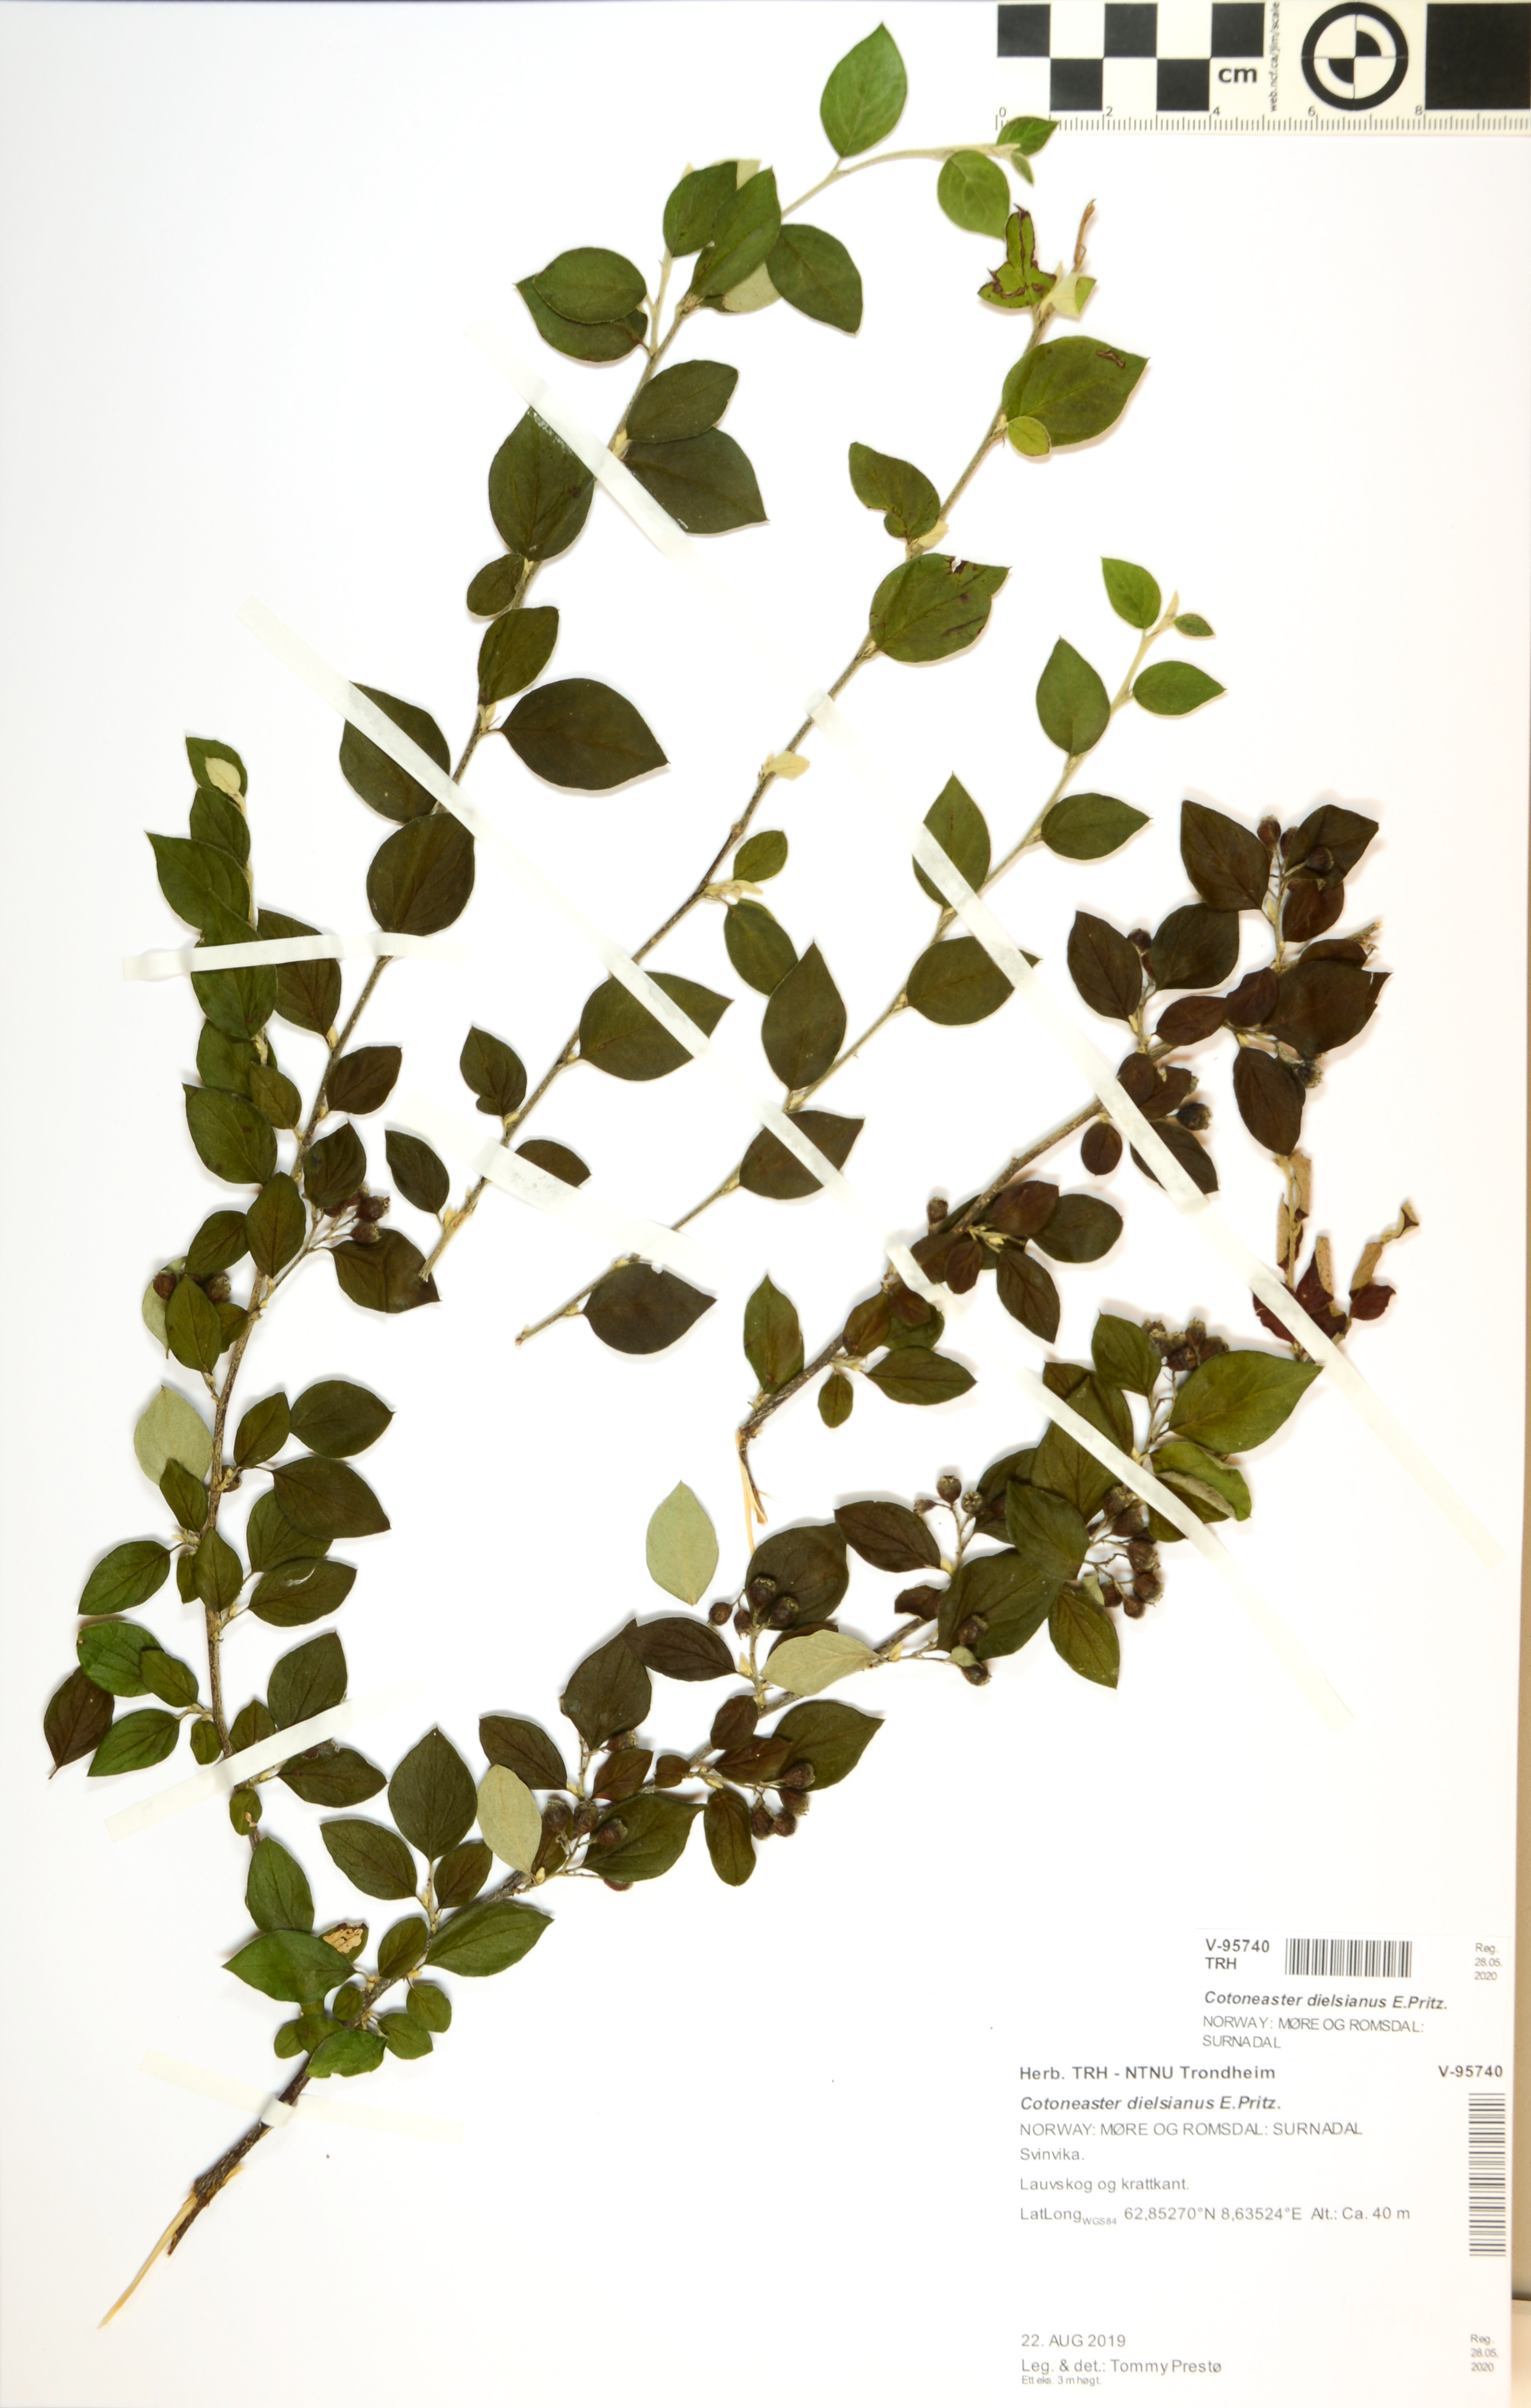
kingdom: Plantae
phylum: Tracheophyta
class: Magnoliopsida
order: Rosales
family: Rosaceae
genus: Cotoneaster
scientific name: Cotoneaster dielsianus
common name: Diels's cotoneaster
